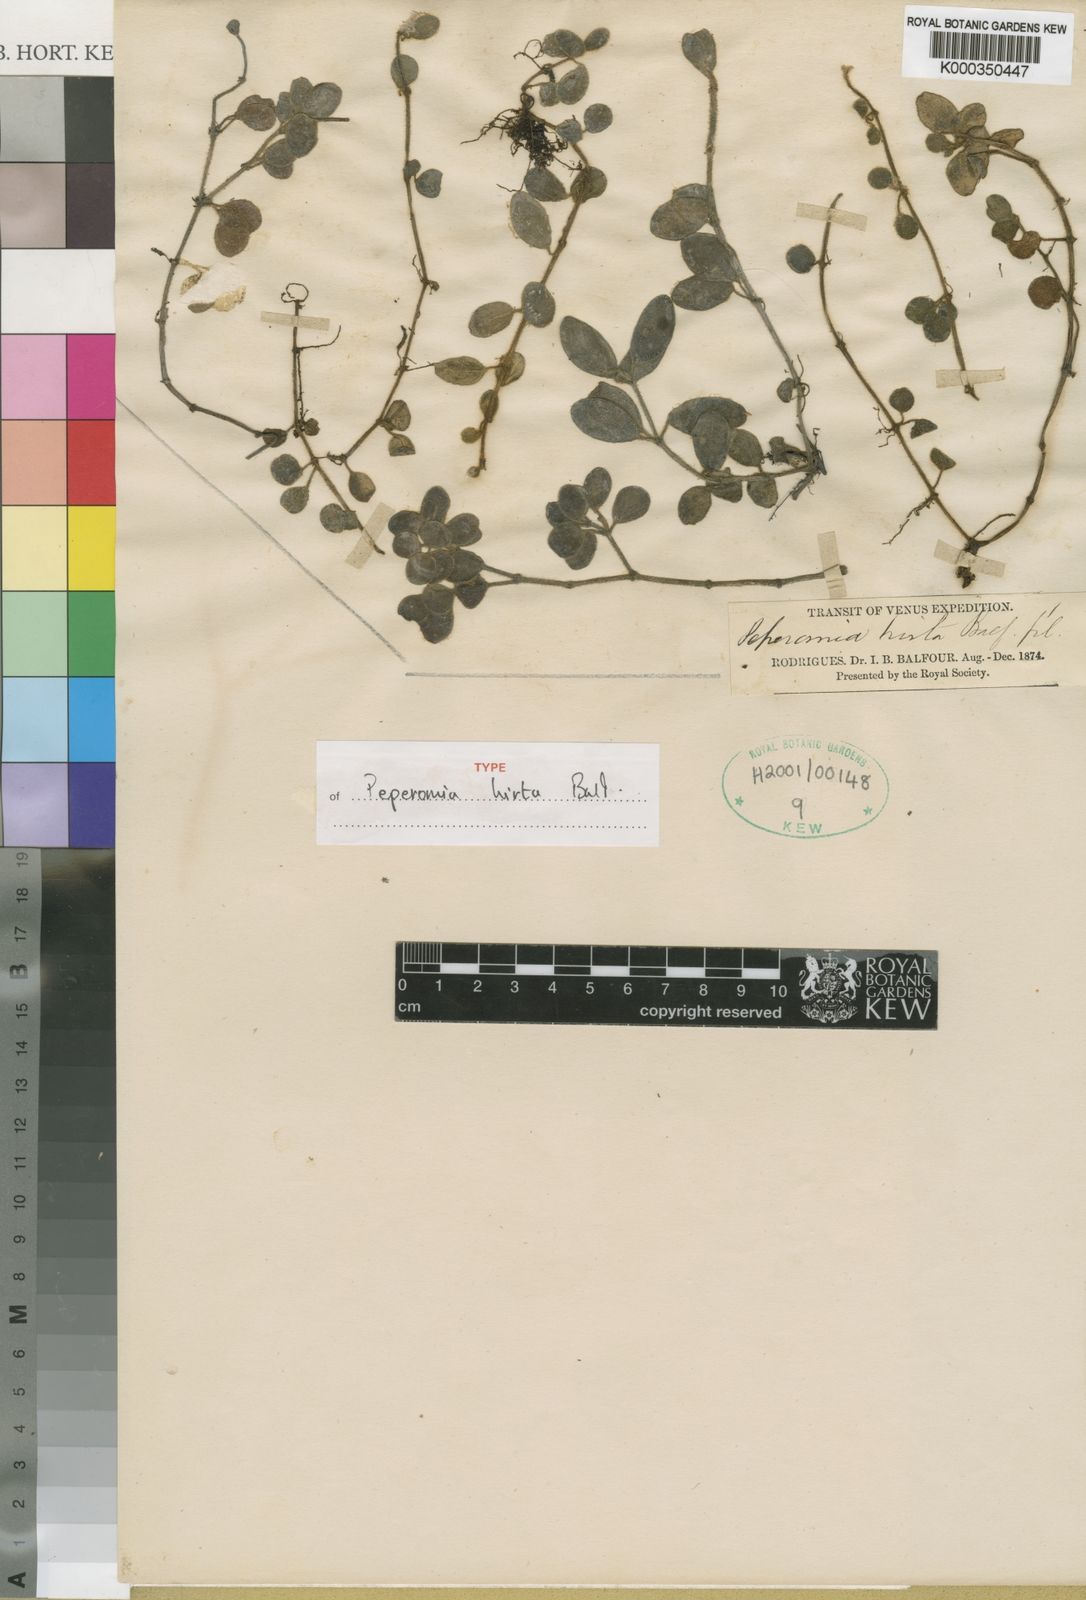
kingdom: Plantae
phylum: Tracheophyta
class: Magnoliopsida
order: Piperales
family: Piperaceae
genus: Peperomia
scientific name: Peperomia
